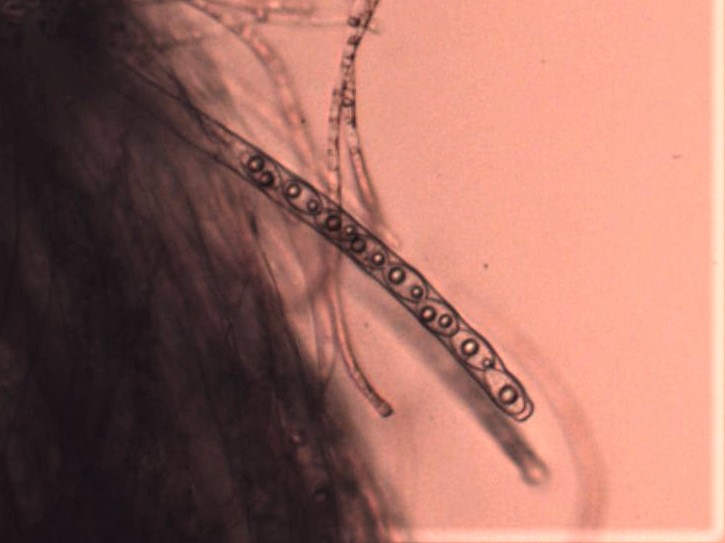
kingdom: Fungi
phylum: Ascomycota
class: Pezizomycetes
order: Pezizales
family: Pyronemataceae
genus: Neottiella
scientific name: Neottiella
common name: mosbæger
